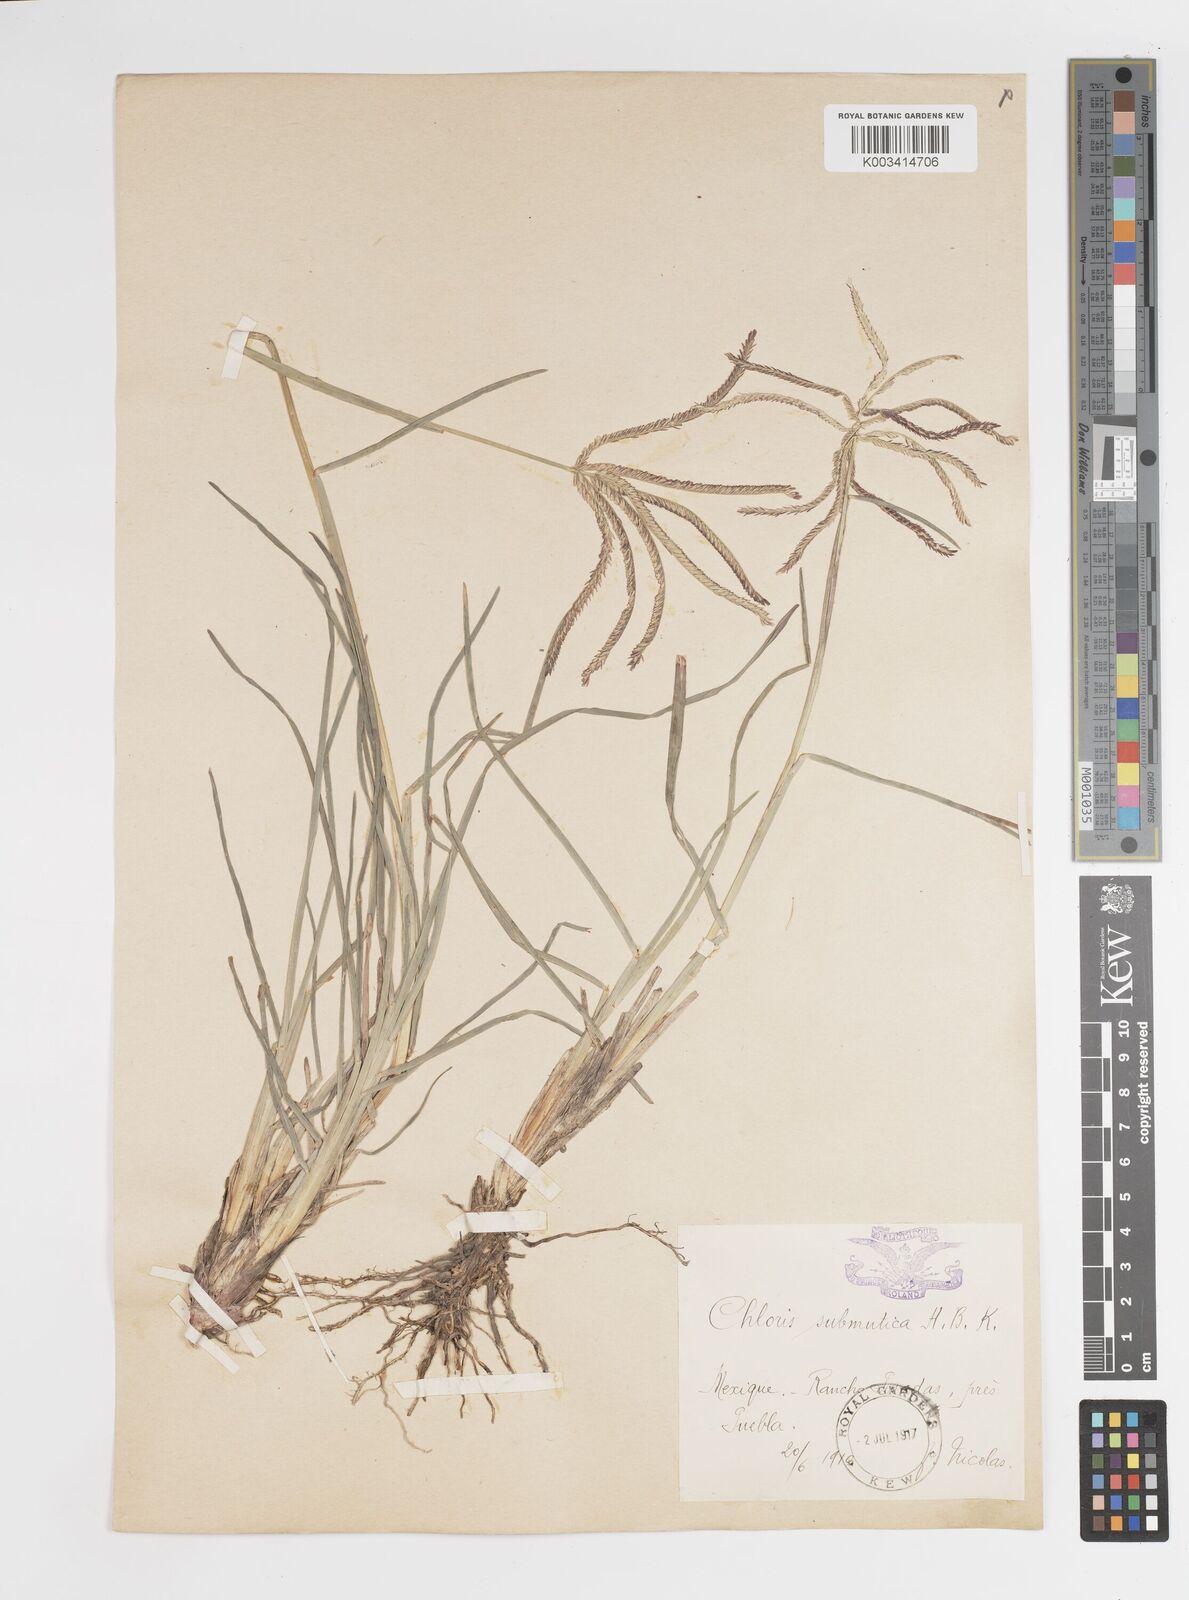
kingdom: Plantae
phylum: Tracheophyta
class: Liliopsida
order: Poales
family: Poaceae
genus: Chloris
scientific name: Chloris submutica
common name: Mexican windmill grass
